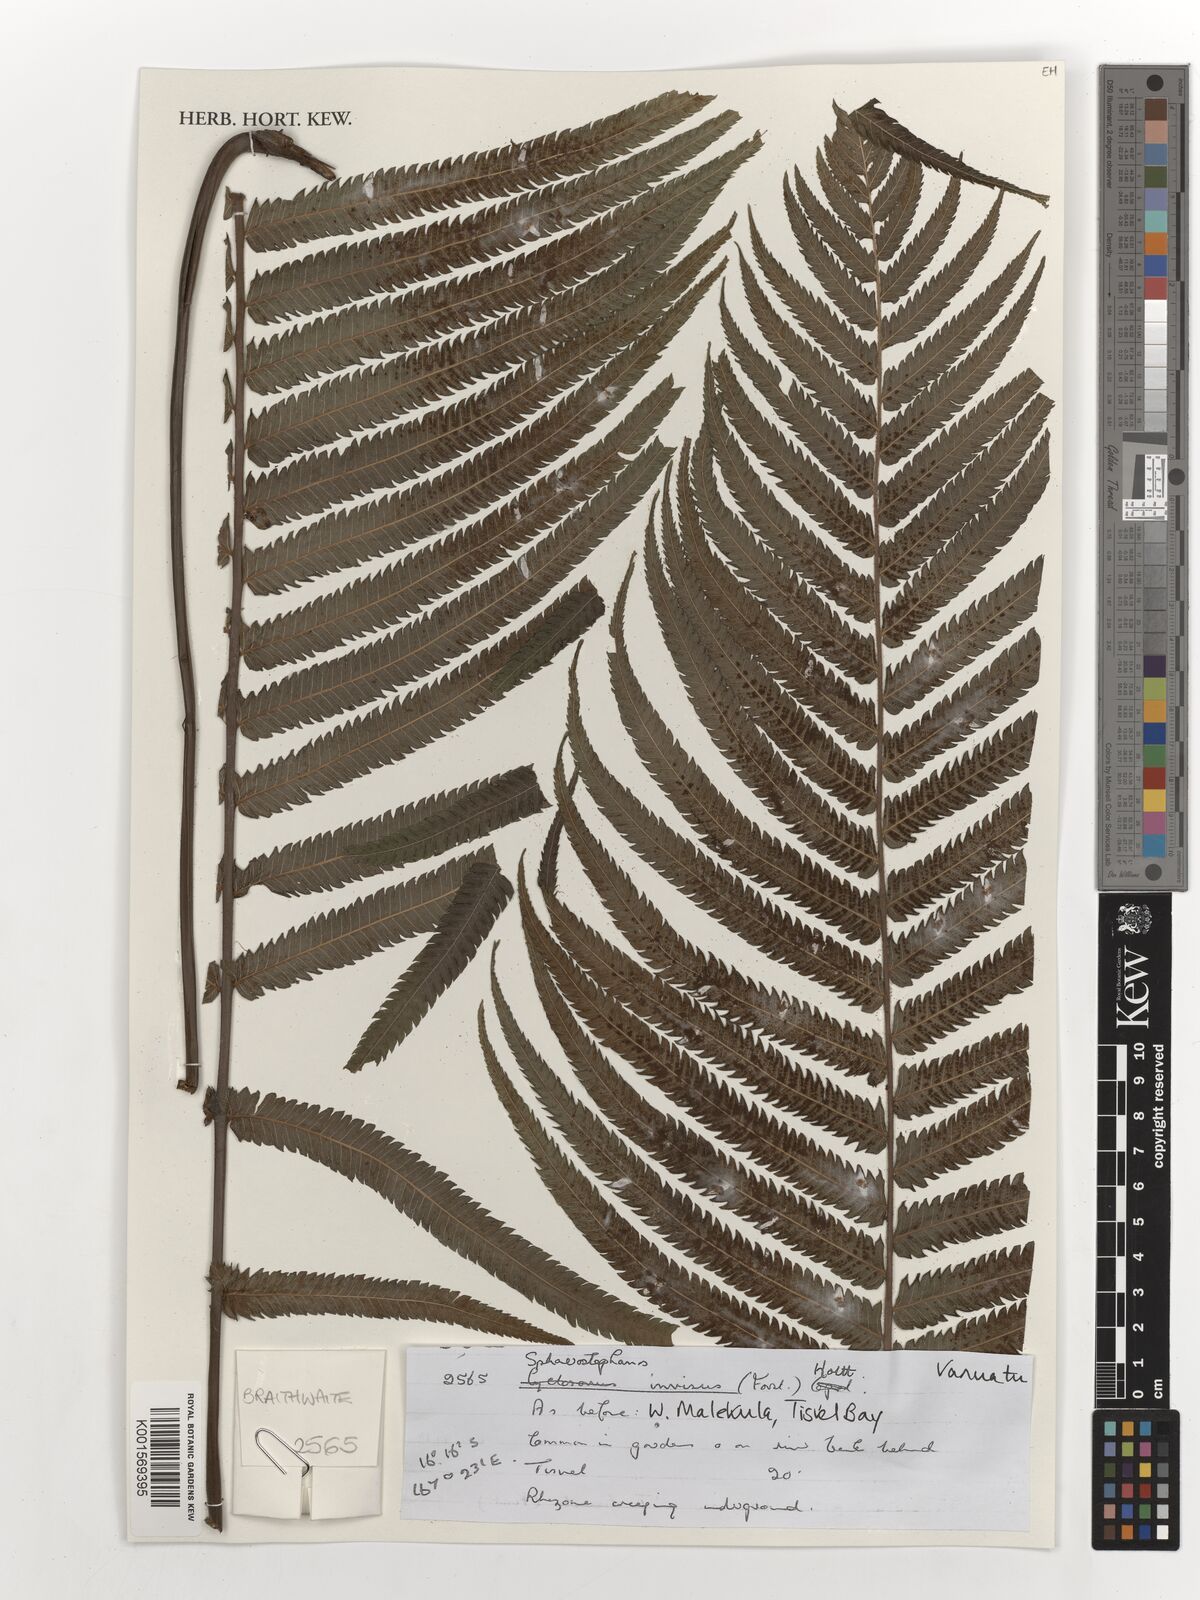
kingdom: Plantae
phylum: Tracheophyta
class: Polypodiopsida
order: Polypodiales
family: Thelypteridaceae
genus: Strophocaulon
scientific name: Strophocaulon invisum
